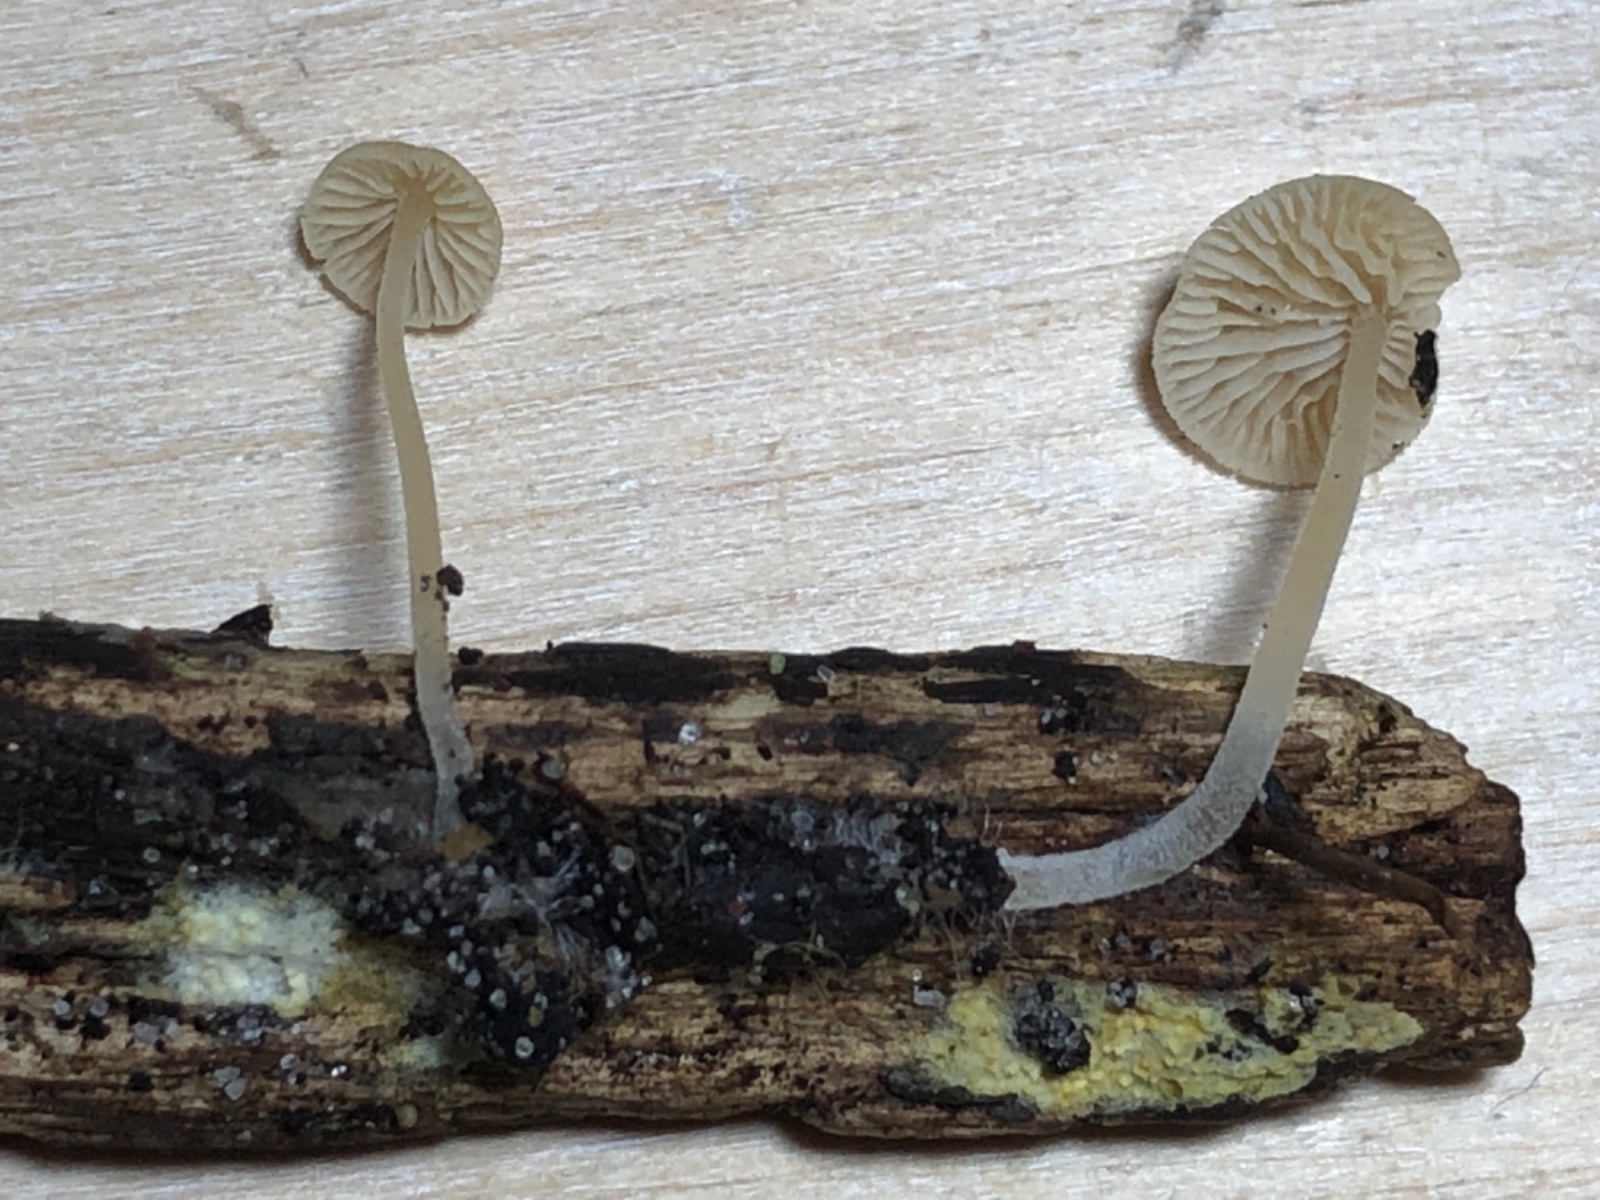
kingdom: Fungi
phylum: Basidiomycota
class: Agaricomycetes
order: Agaricales
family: Stephanosporaceae
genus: Lindtneria
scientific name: Lindtneria leucobryophila
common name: bleg citrushinde
